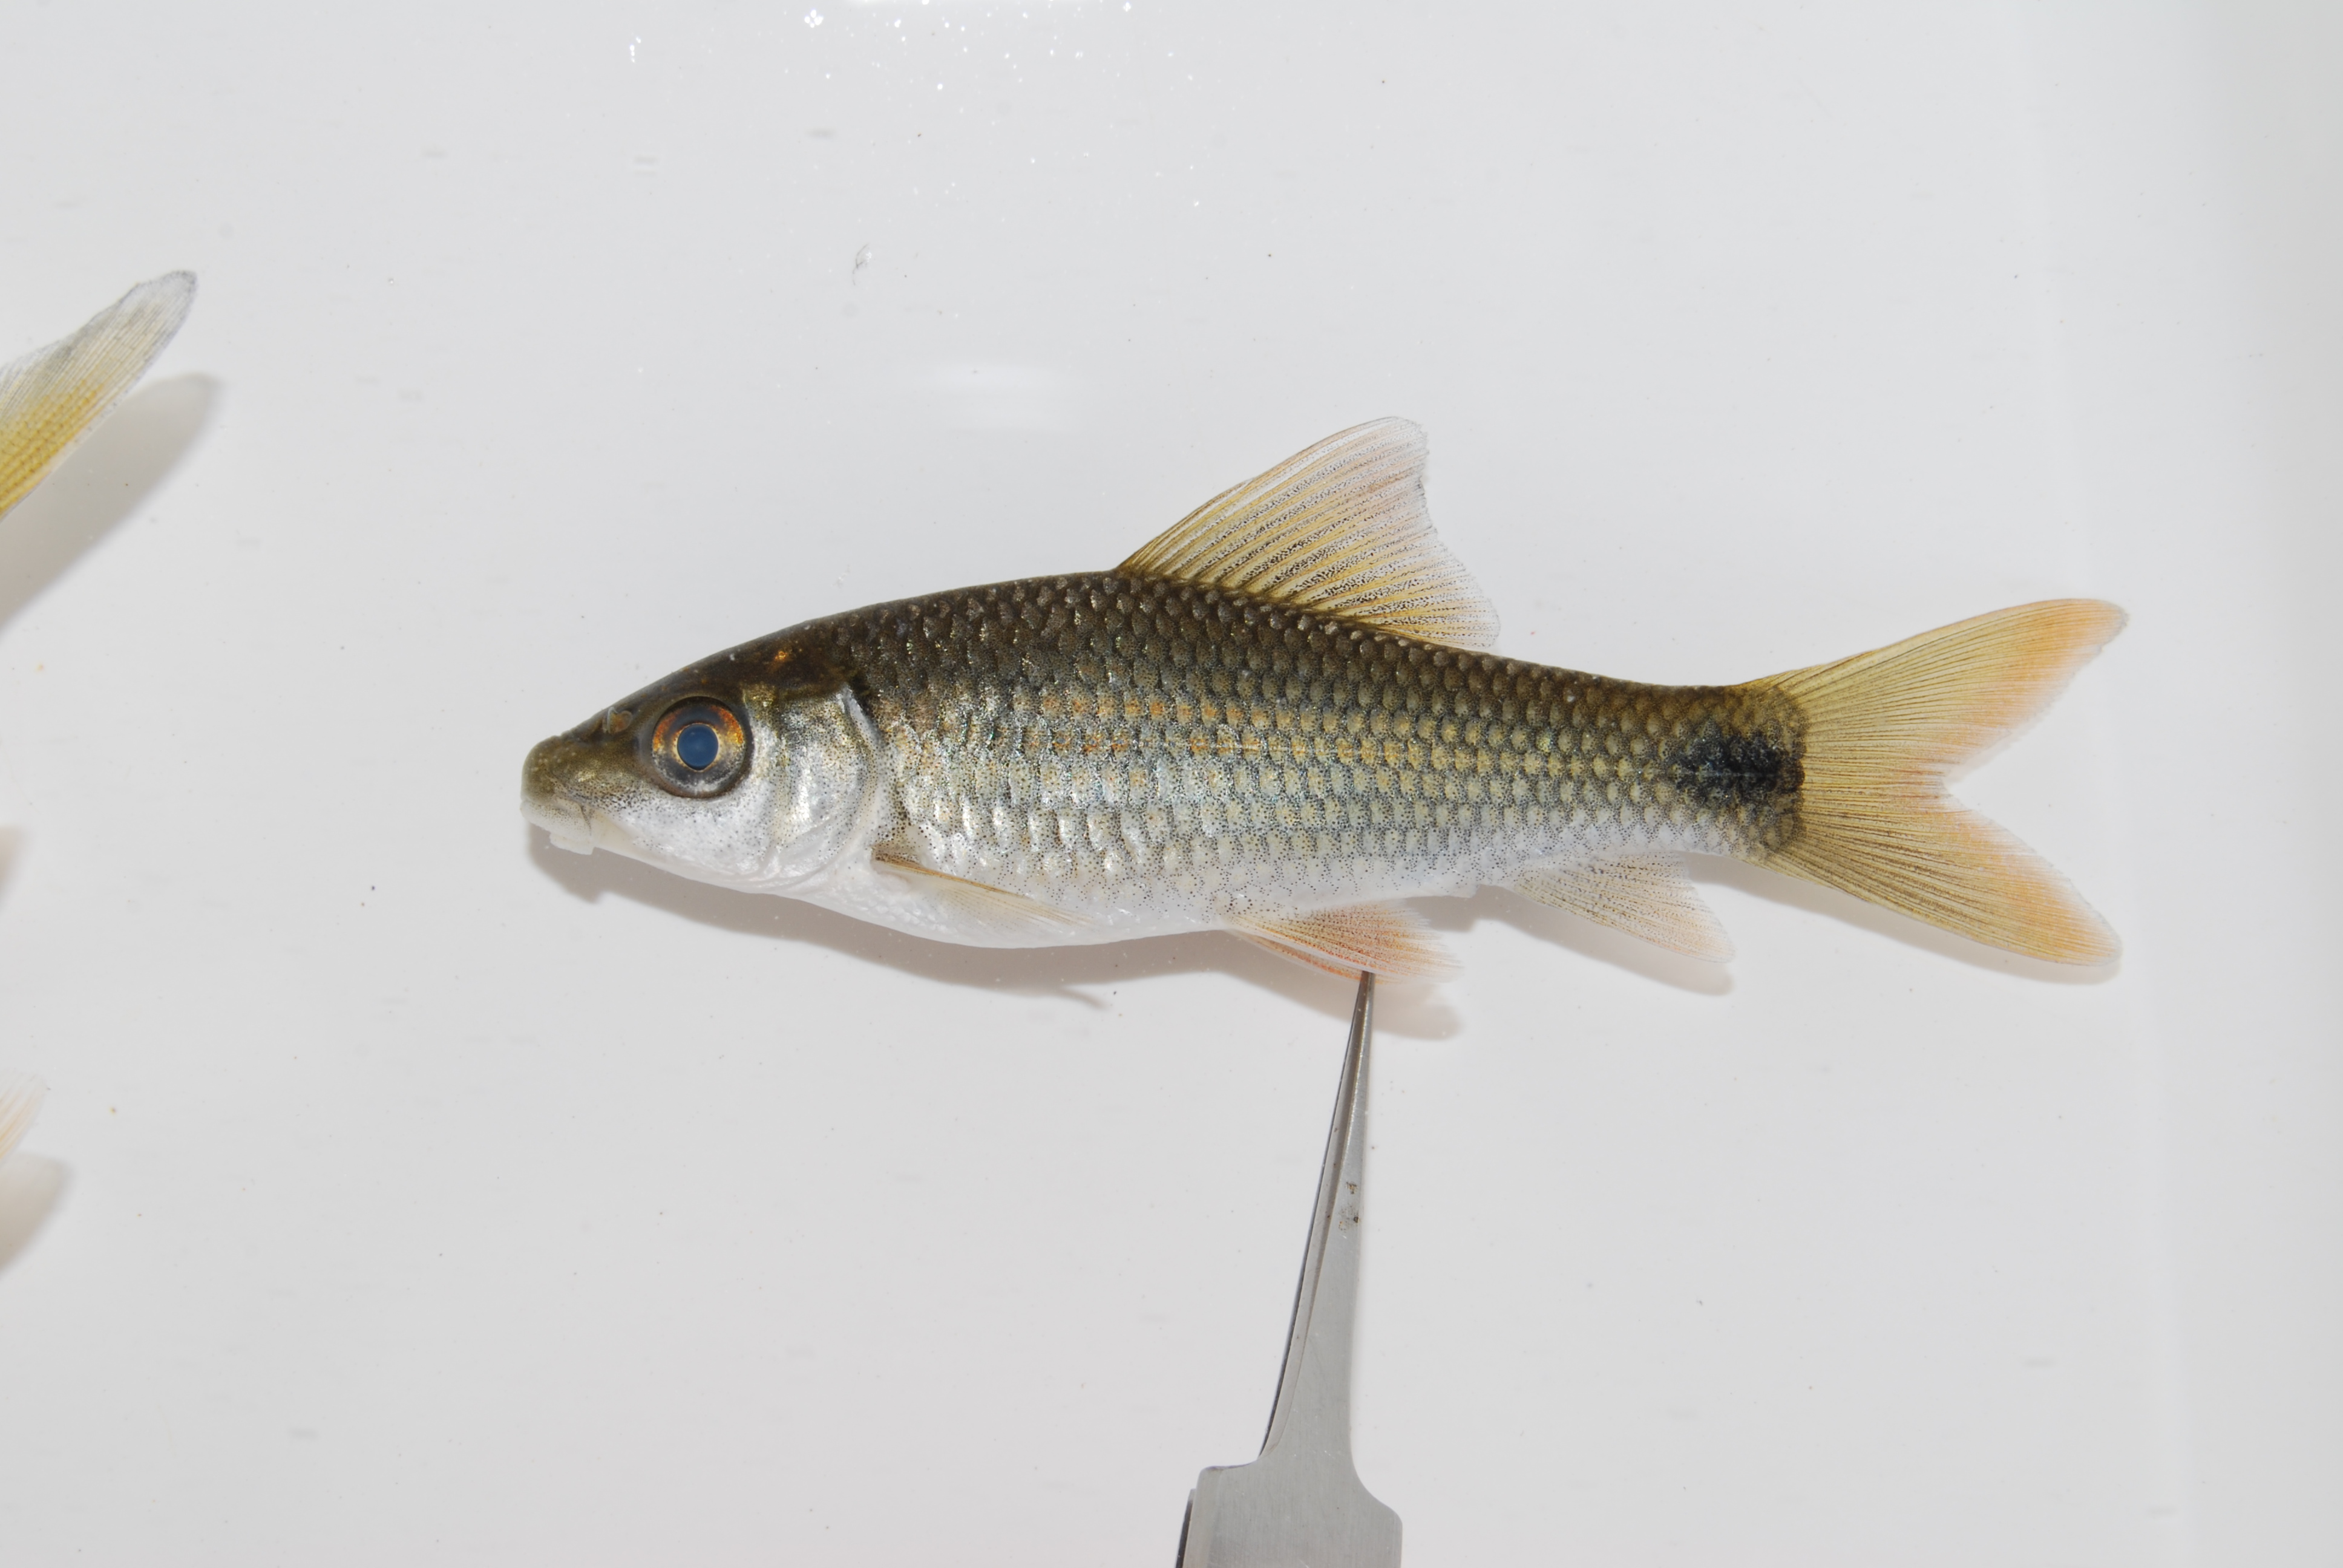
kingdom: Animalia
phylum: Chordata
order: Cypriniformes
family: Cyprinidae
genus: Labeo
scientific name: Labeo congoro
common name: Purple labeo
